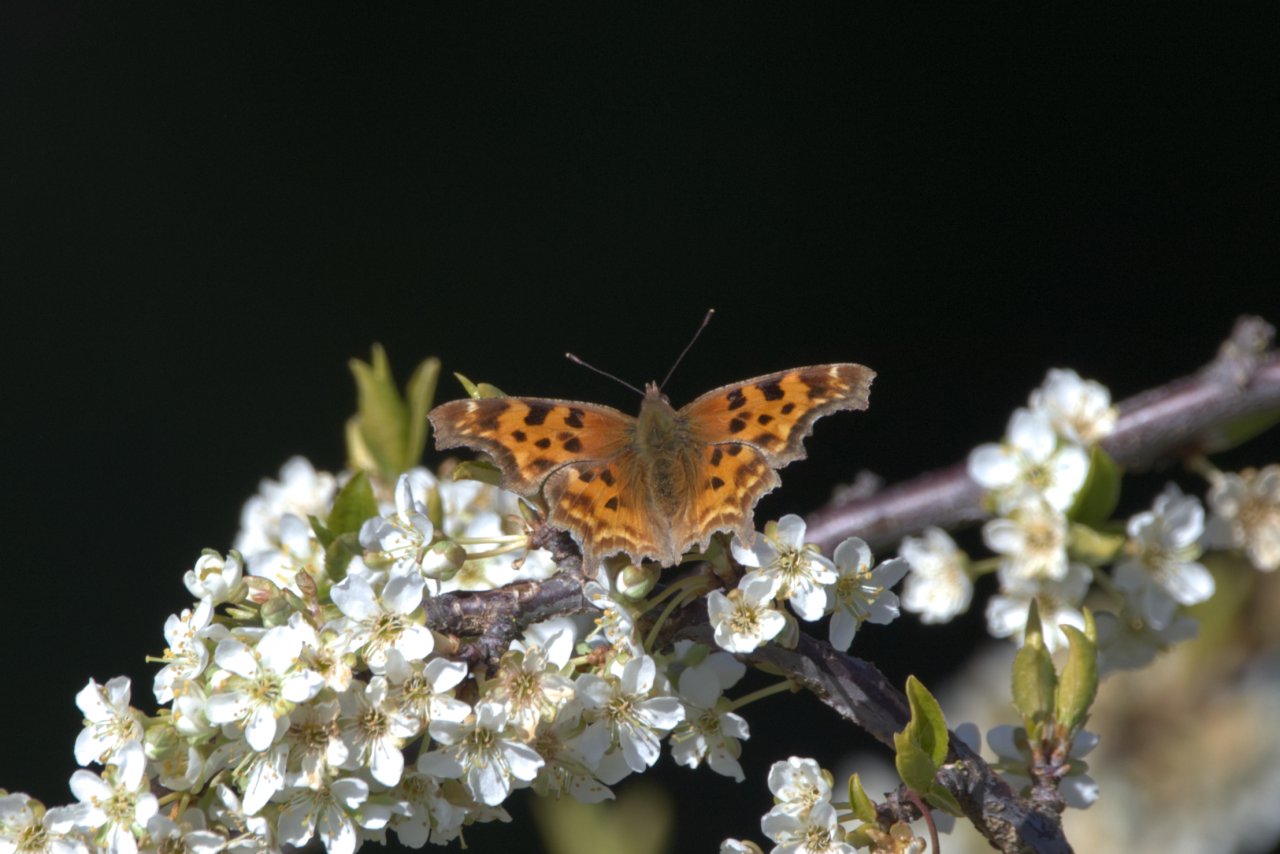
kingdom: Animalia
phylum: Arthropoda
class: Insecta
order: Lepidoptera
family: Nymphalidae
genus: Polygonia
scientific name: Polygonia satyrus
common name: Satyr Comma
